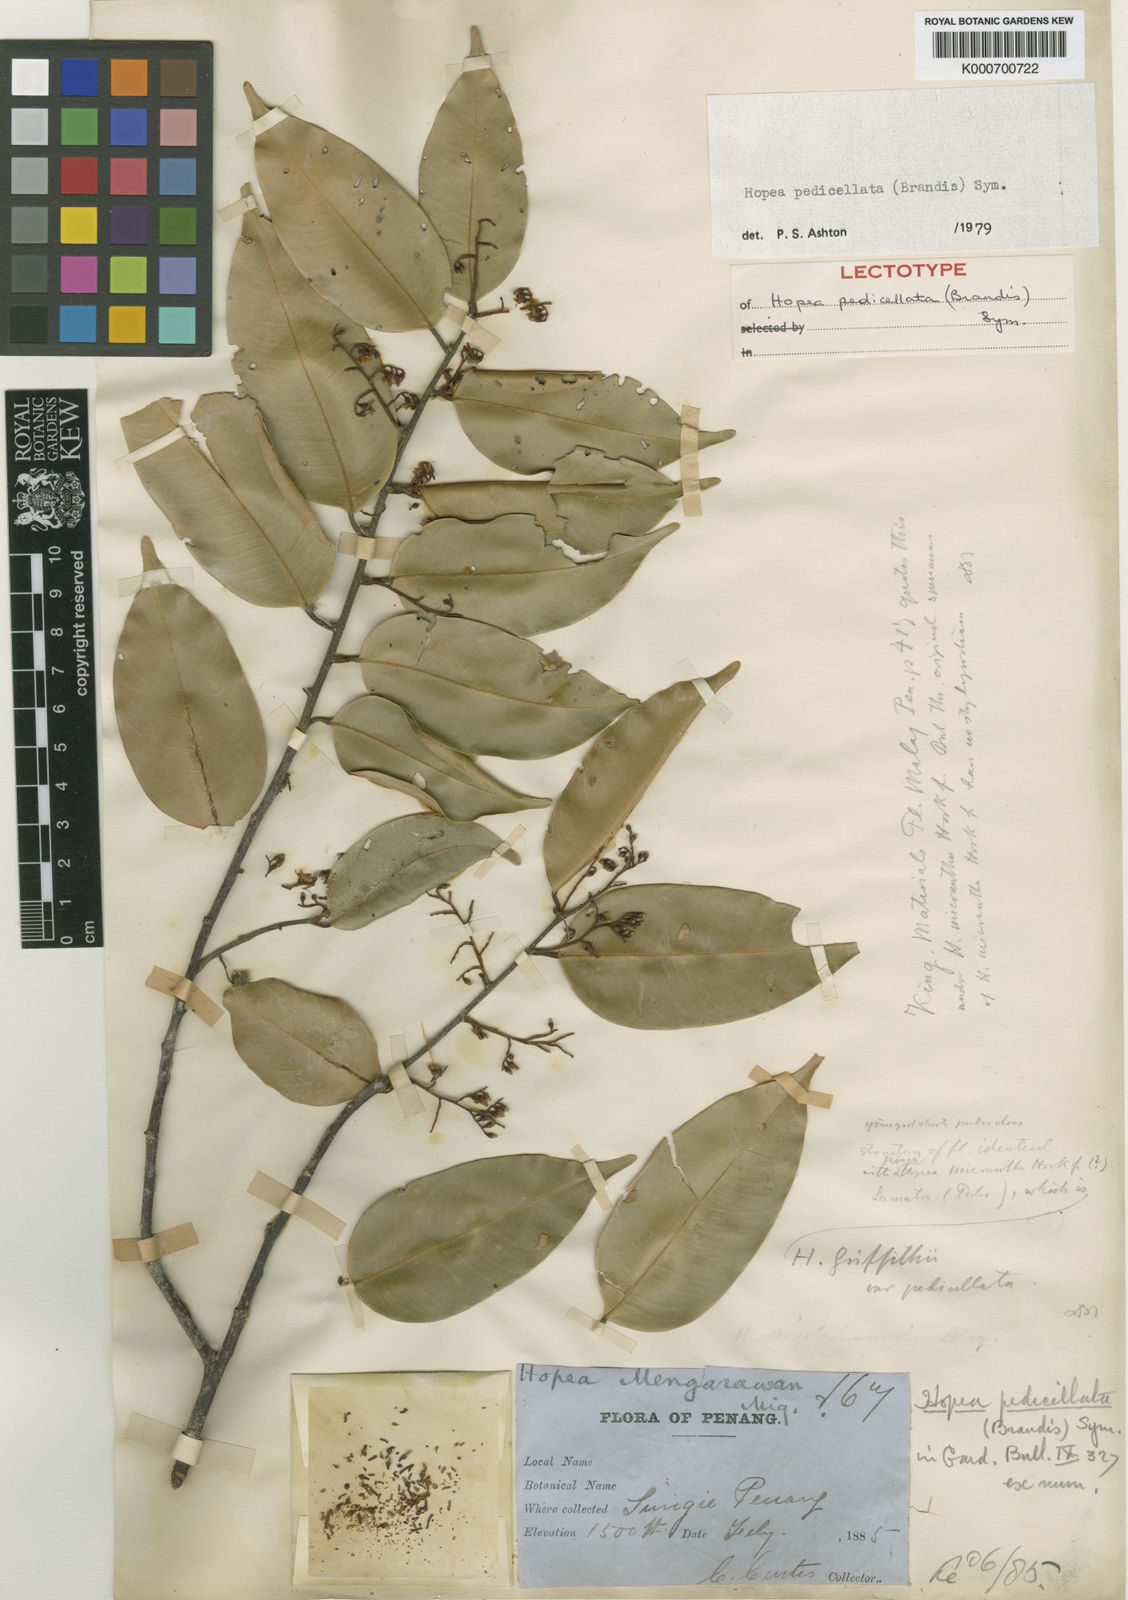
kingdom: Plantae
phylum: Tracheophyta
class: Magnoliopsida
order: Malvales
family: Dipterocarpaceae
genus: Hopea
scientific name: Hopea pedicellata
